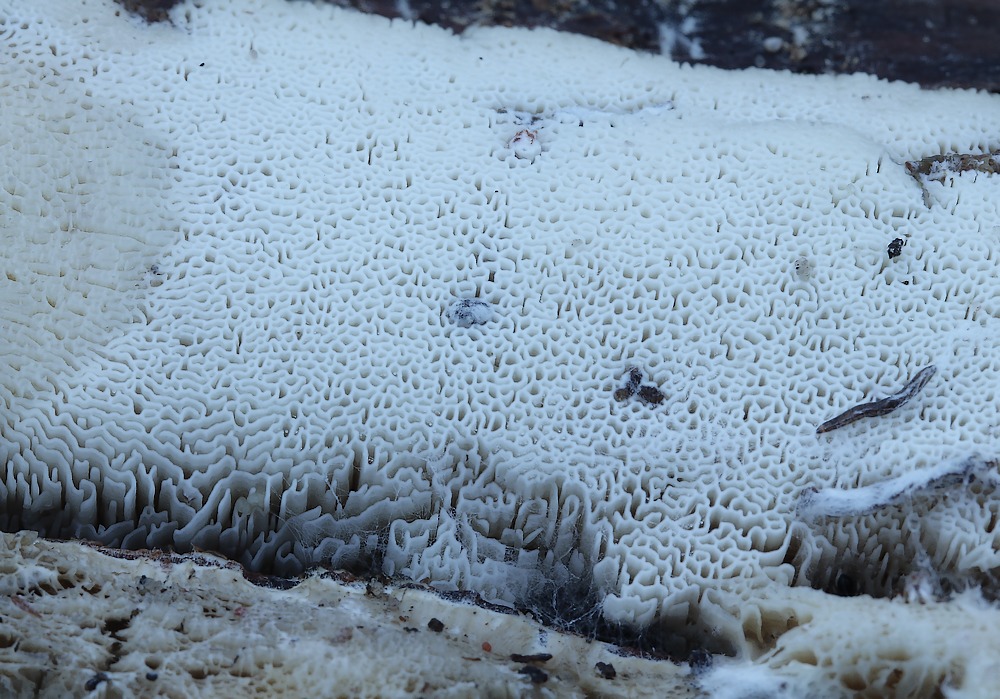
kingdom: Fungi
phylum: Basidiomycota
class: Agaricomycetes
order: Hymenochaetales
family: Schizoporaceae
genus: Xylodon
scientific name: Xylodon subtropicus
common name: labyrint-tandsvamp
